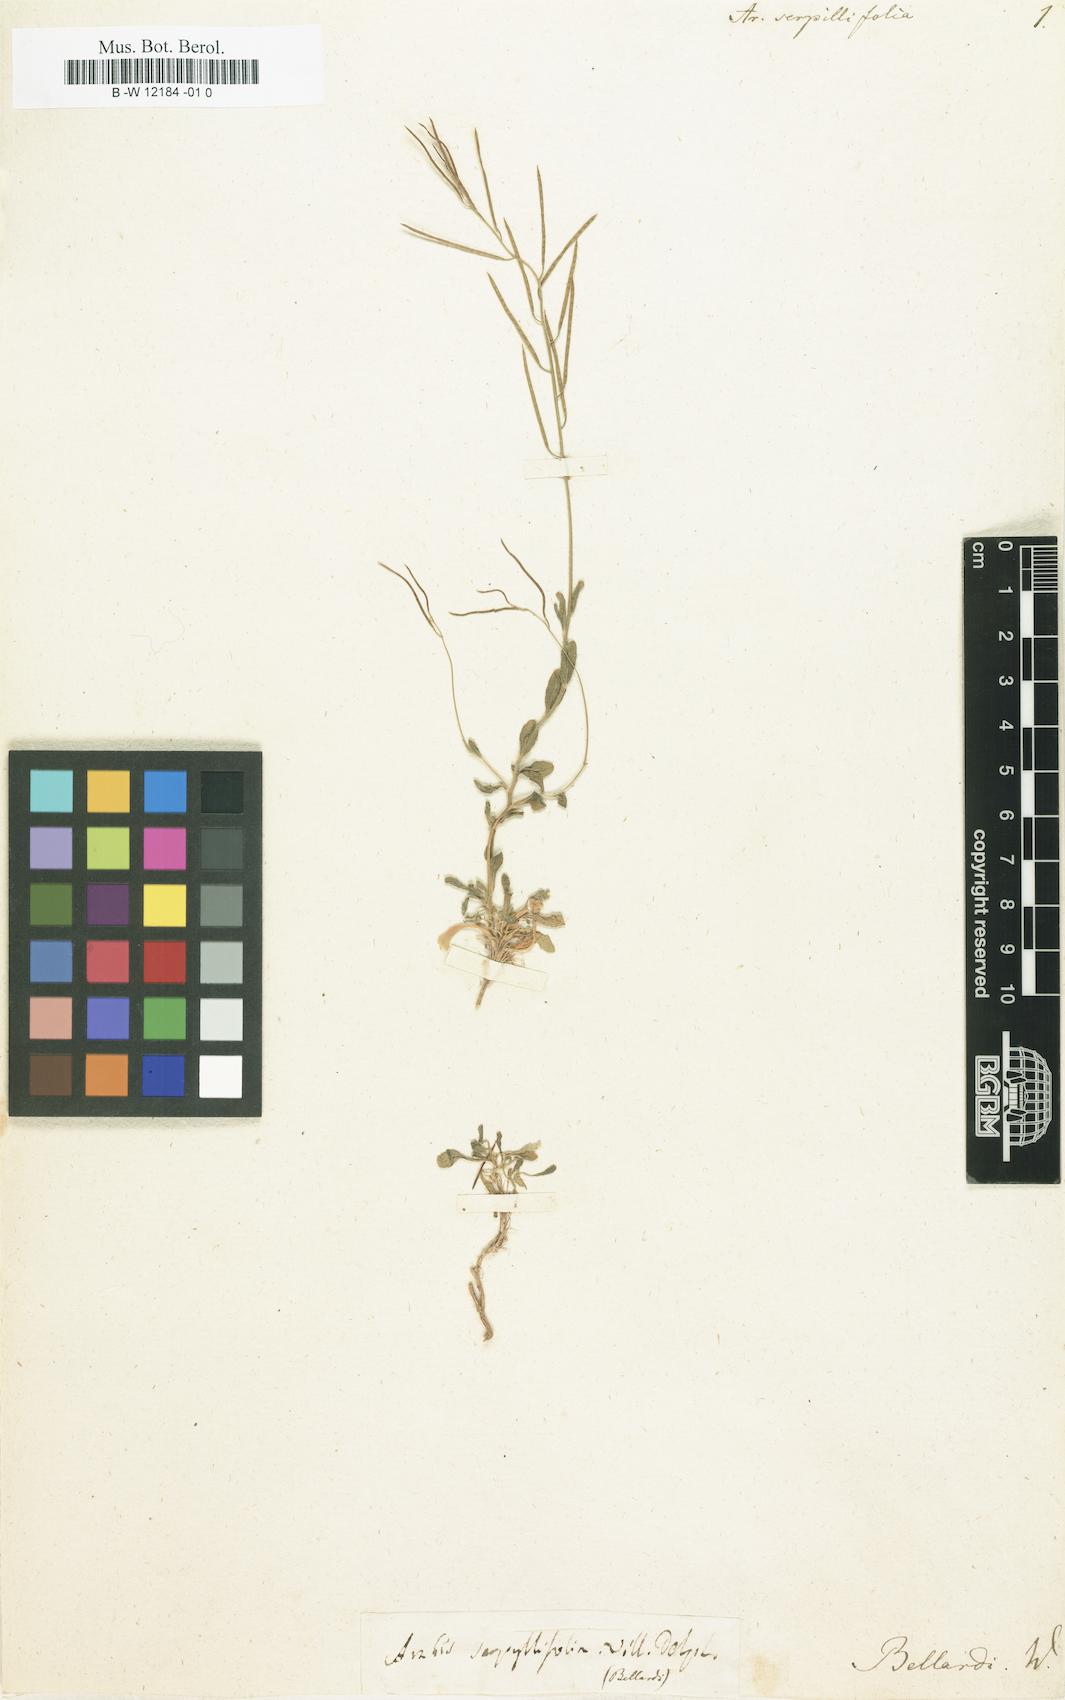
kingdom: Plantae
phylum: Tracheophyta
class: Magnoliopsida
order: Brassicales
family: Brassicaceae
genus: Arabis
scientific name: Arabis serpyllifolia
